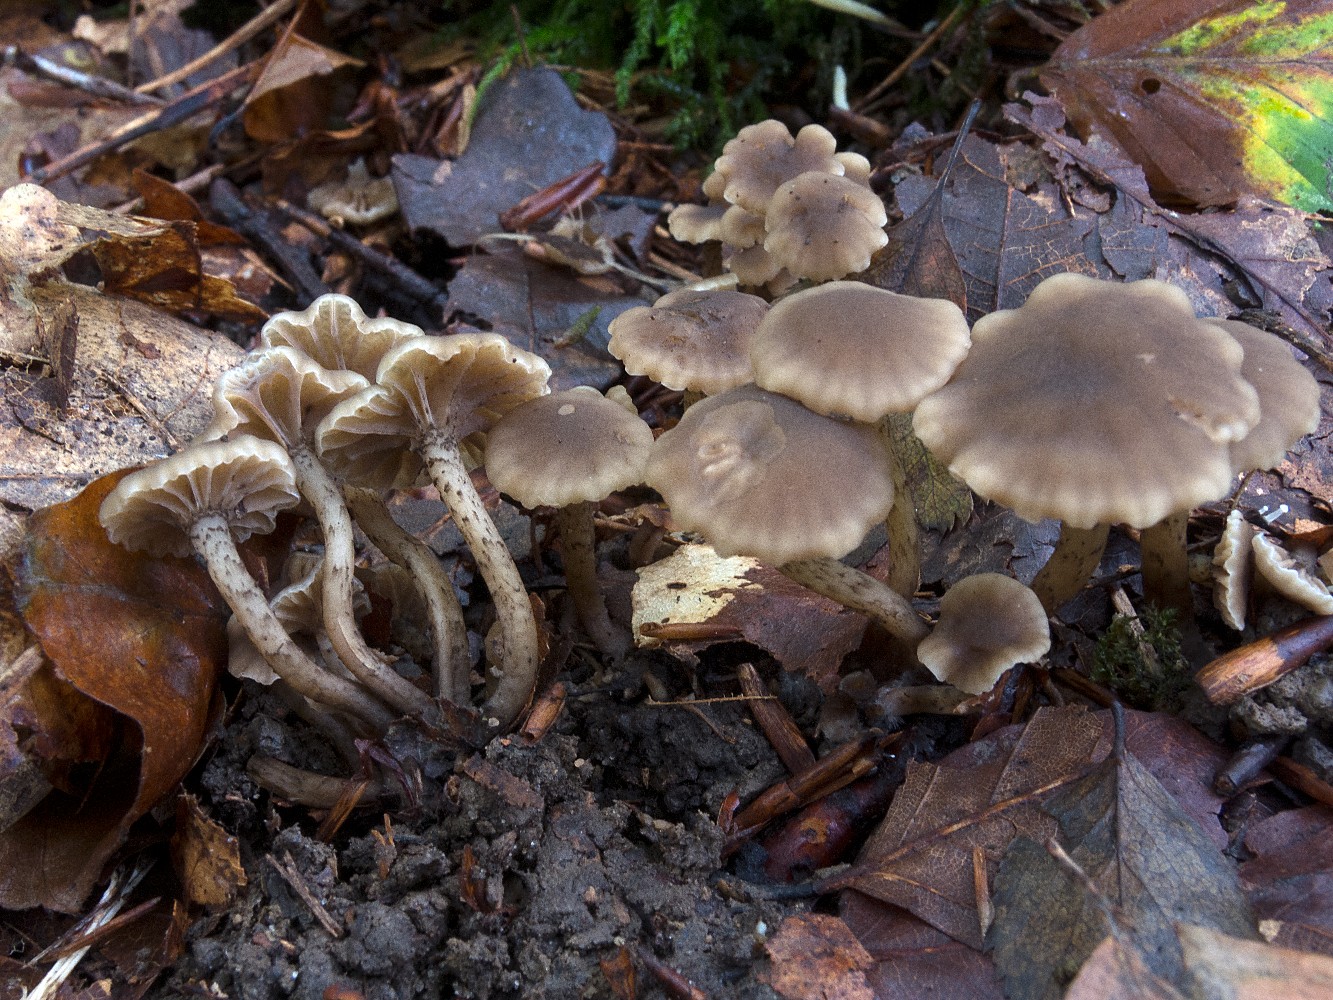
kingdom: Fungi
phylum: Basidiomycota
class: Agaricomycetes
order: Agaricales
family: Clavariaceae
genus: Hodophilus
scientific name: Hodophilus variabilipes
